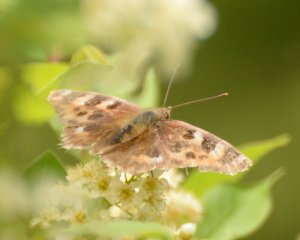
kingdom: Animalia
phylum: Arthropoda
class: Insecta
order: Lepidoptera
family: Nymphalidae
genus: Polygonia
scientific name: Polygonia vaualbum
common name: Compton Tortoiseshell
